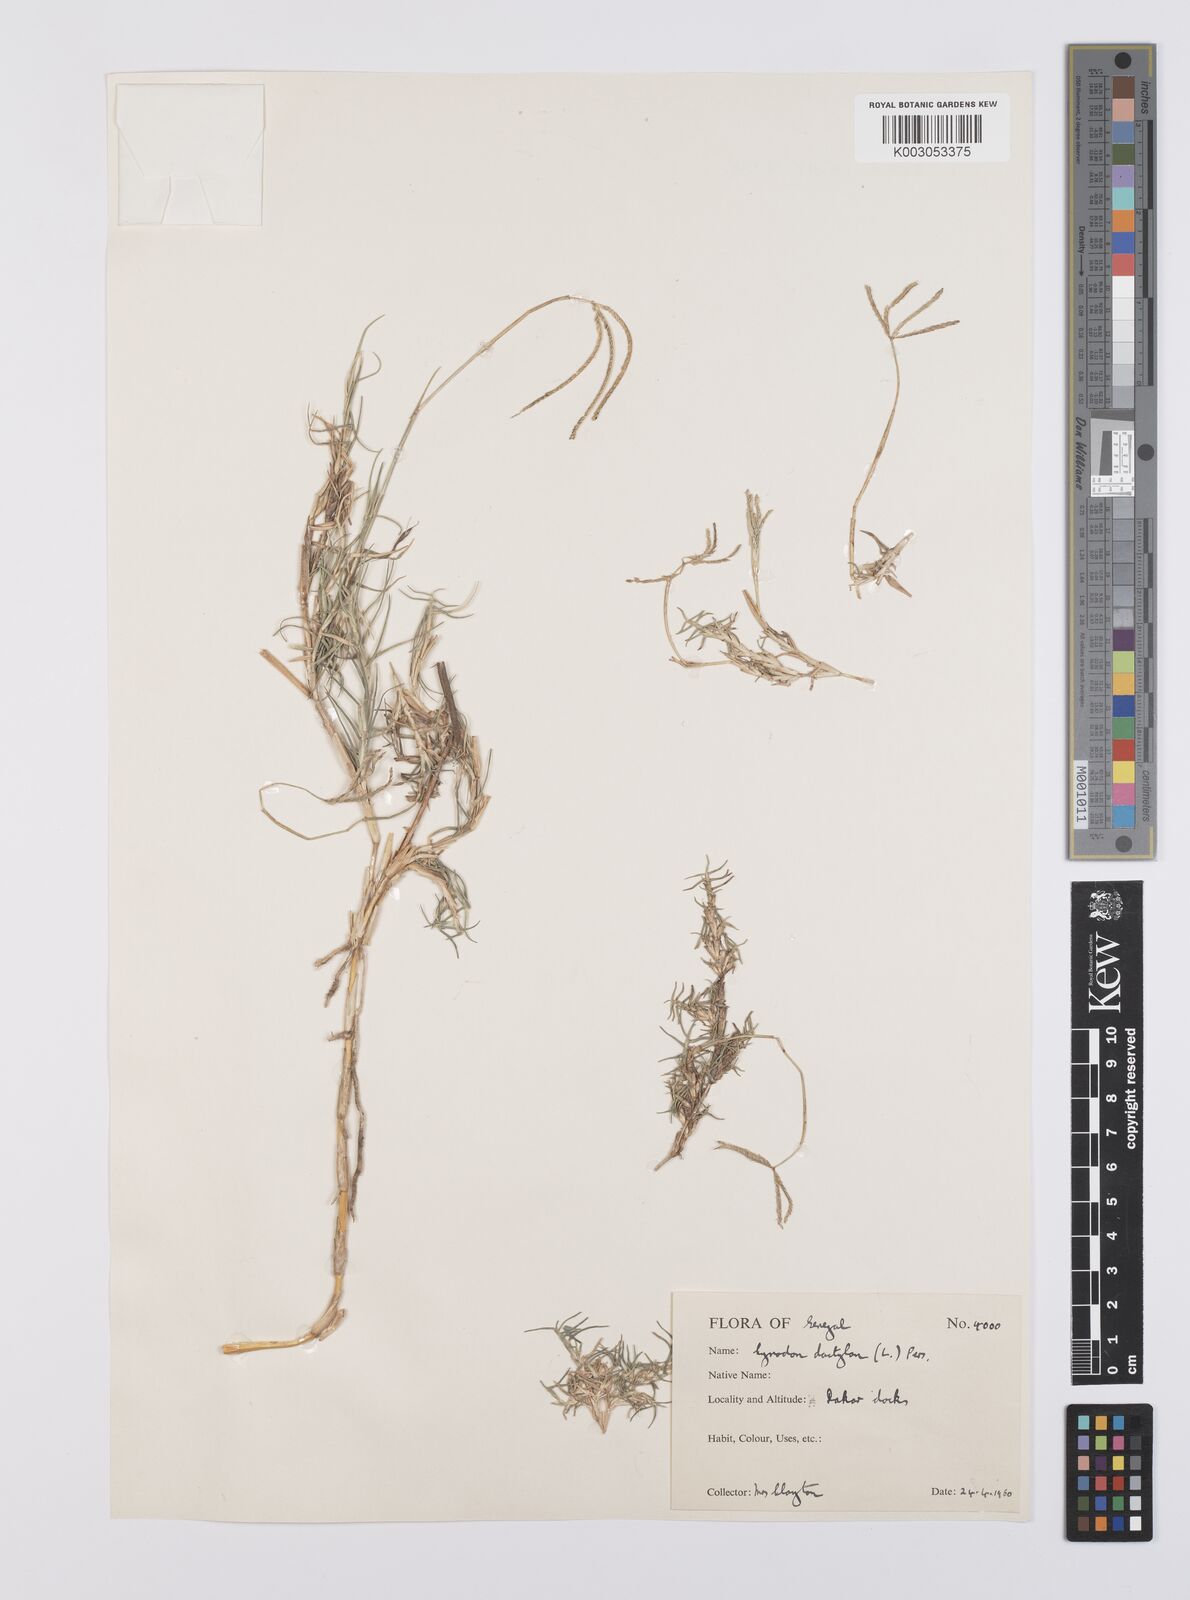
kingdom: Plantae
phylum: Tracheophyta
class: Liliopsida
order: Poales
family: Poaceae
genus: Cynodon
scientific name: Cynodon dactylon
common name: Bermuda grass
